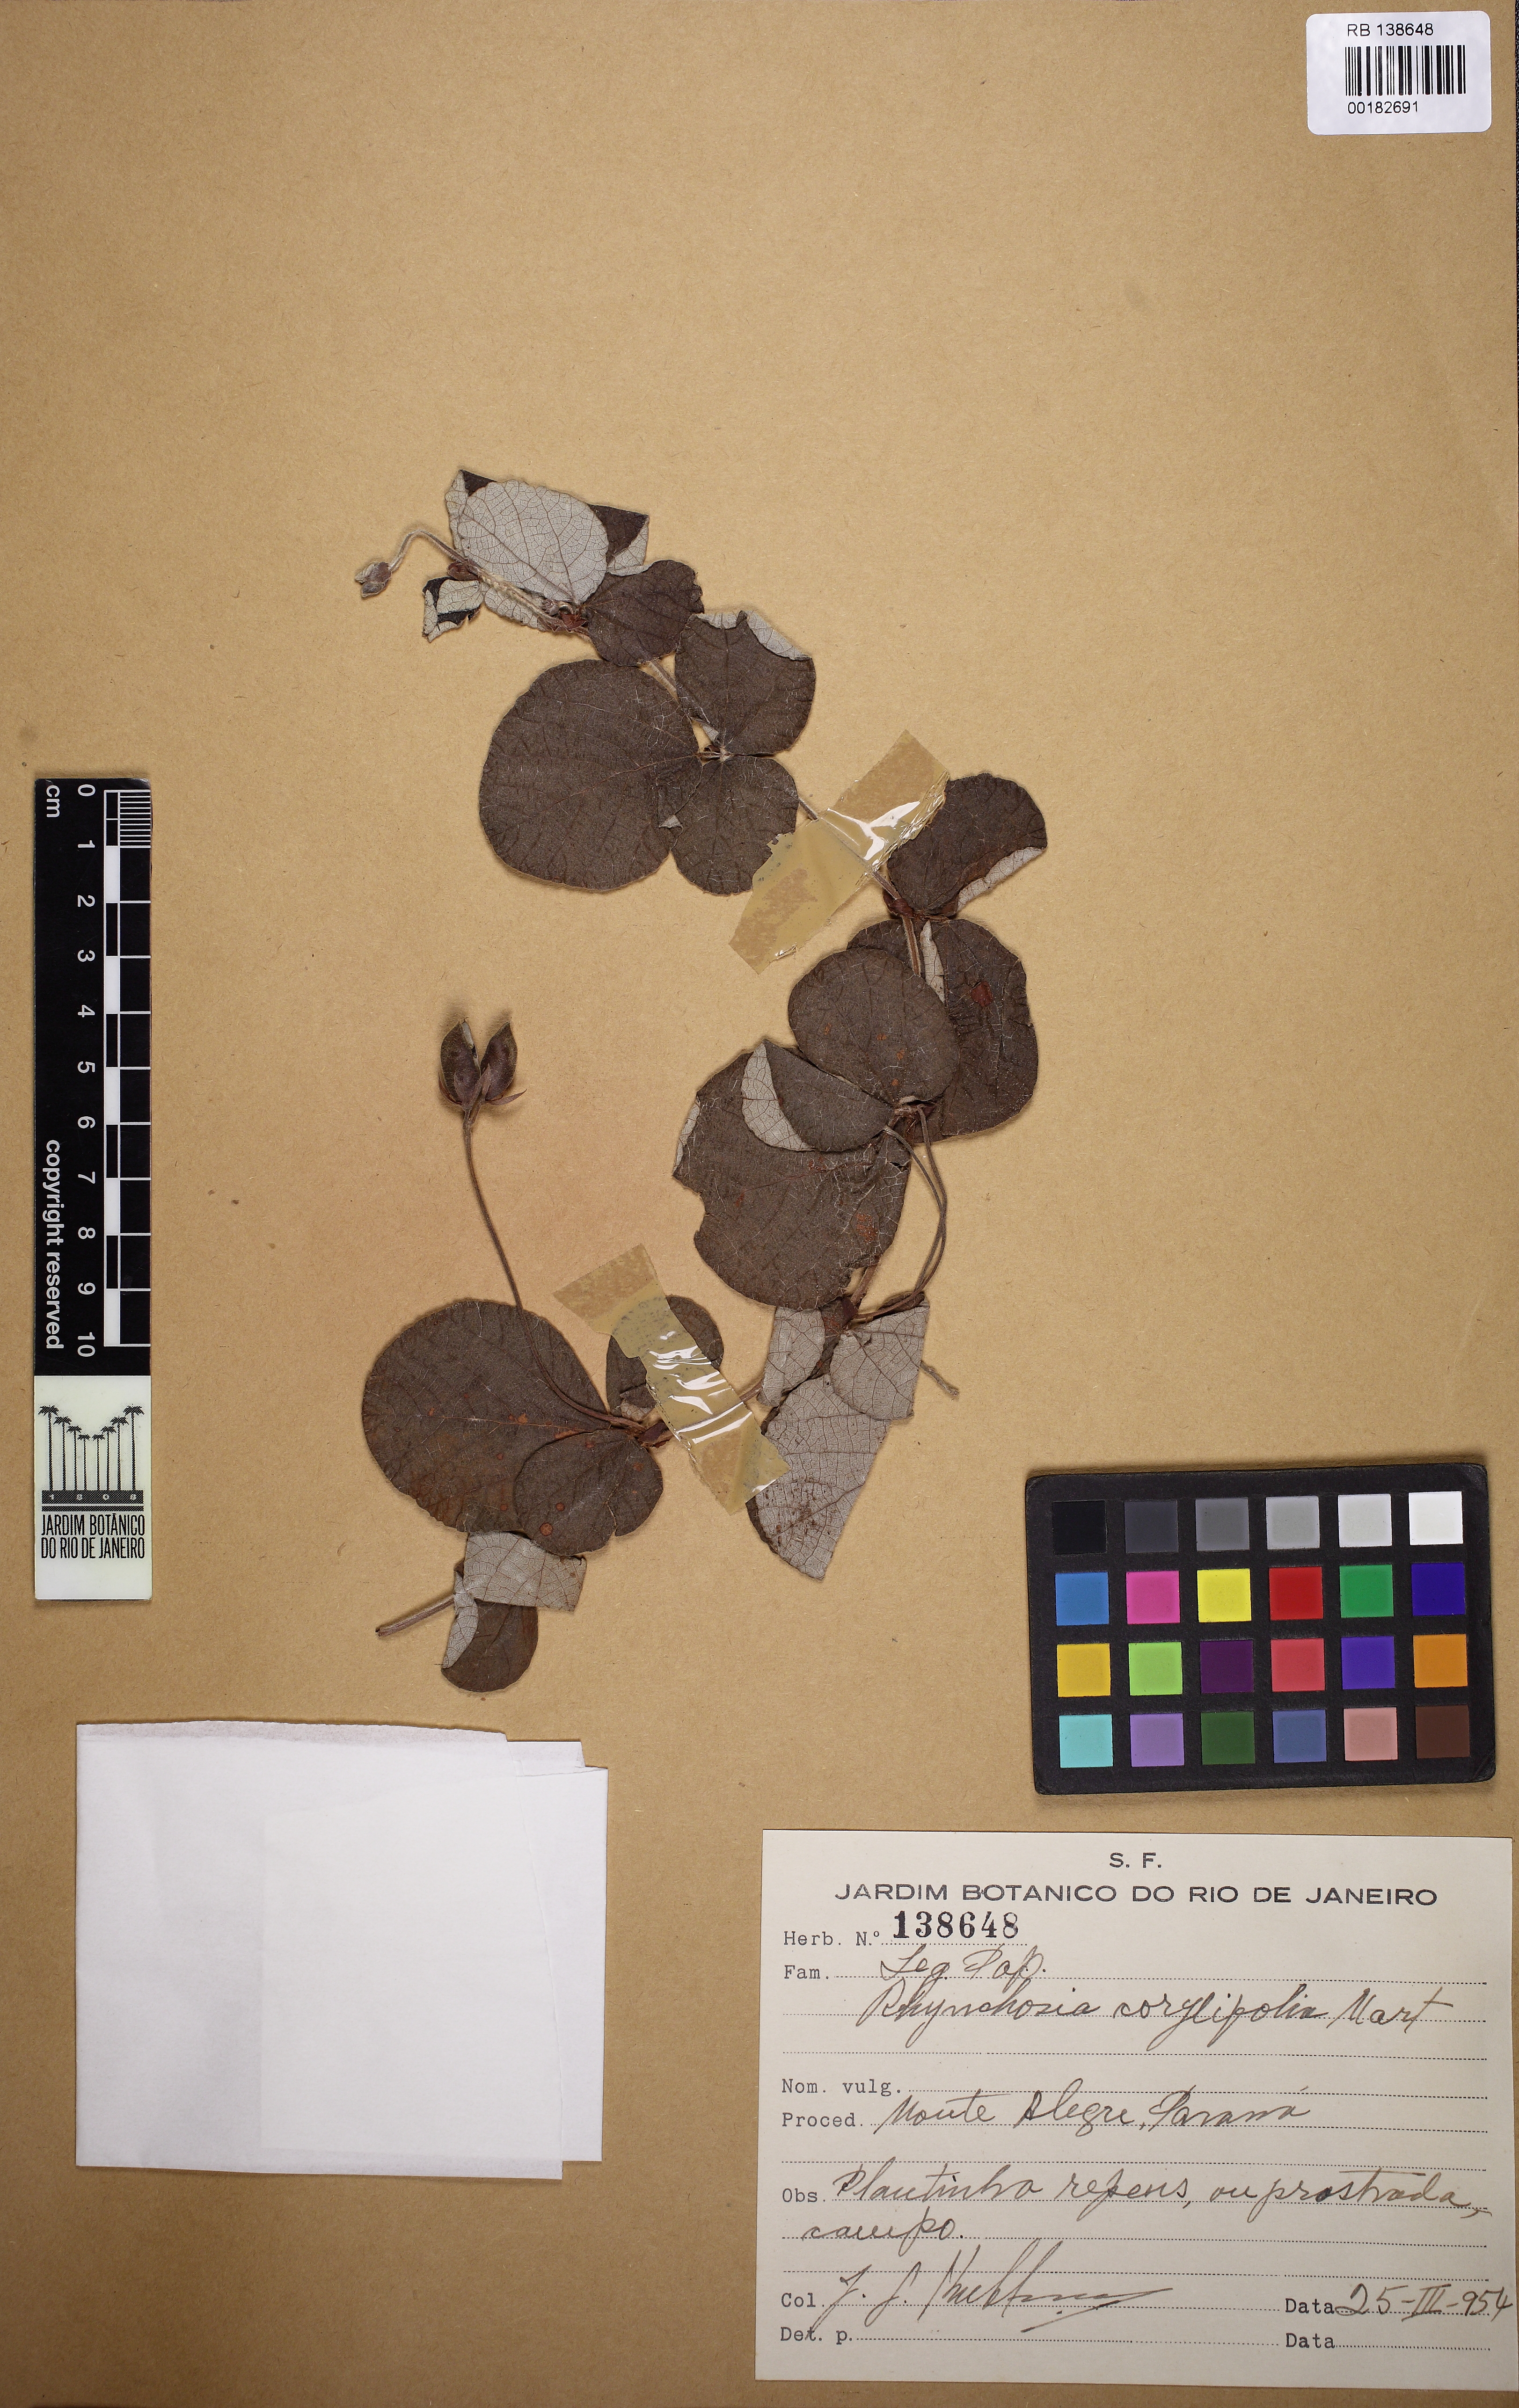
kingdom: Plantae
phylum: Tracheophyta
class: Magnoliopsida
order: Fabales
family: Fabaceae
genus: Rhynchosia
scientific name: Rhynchosia corylifolia
